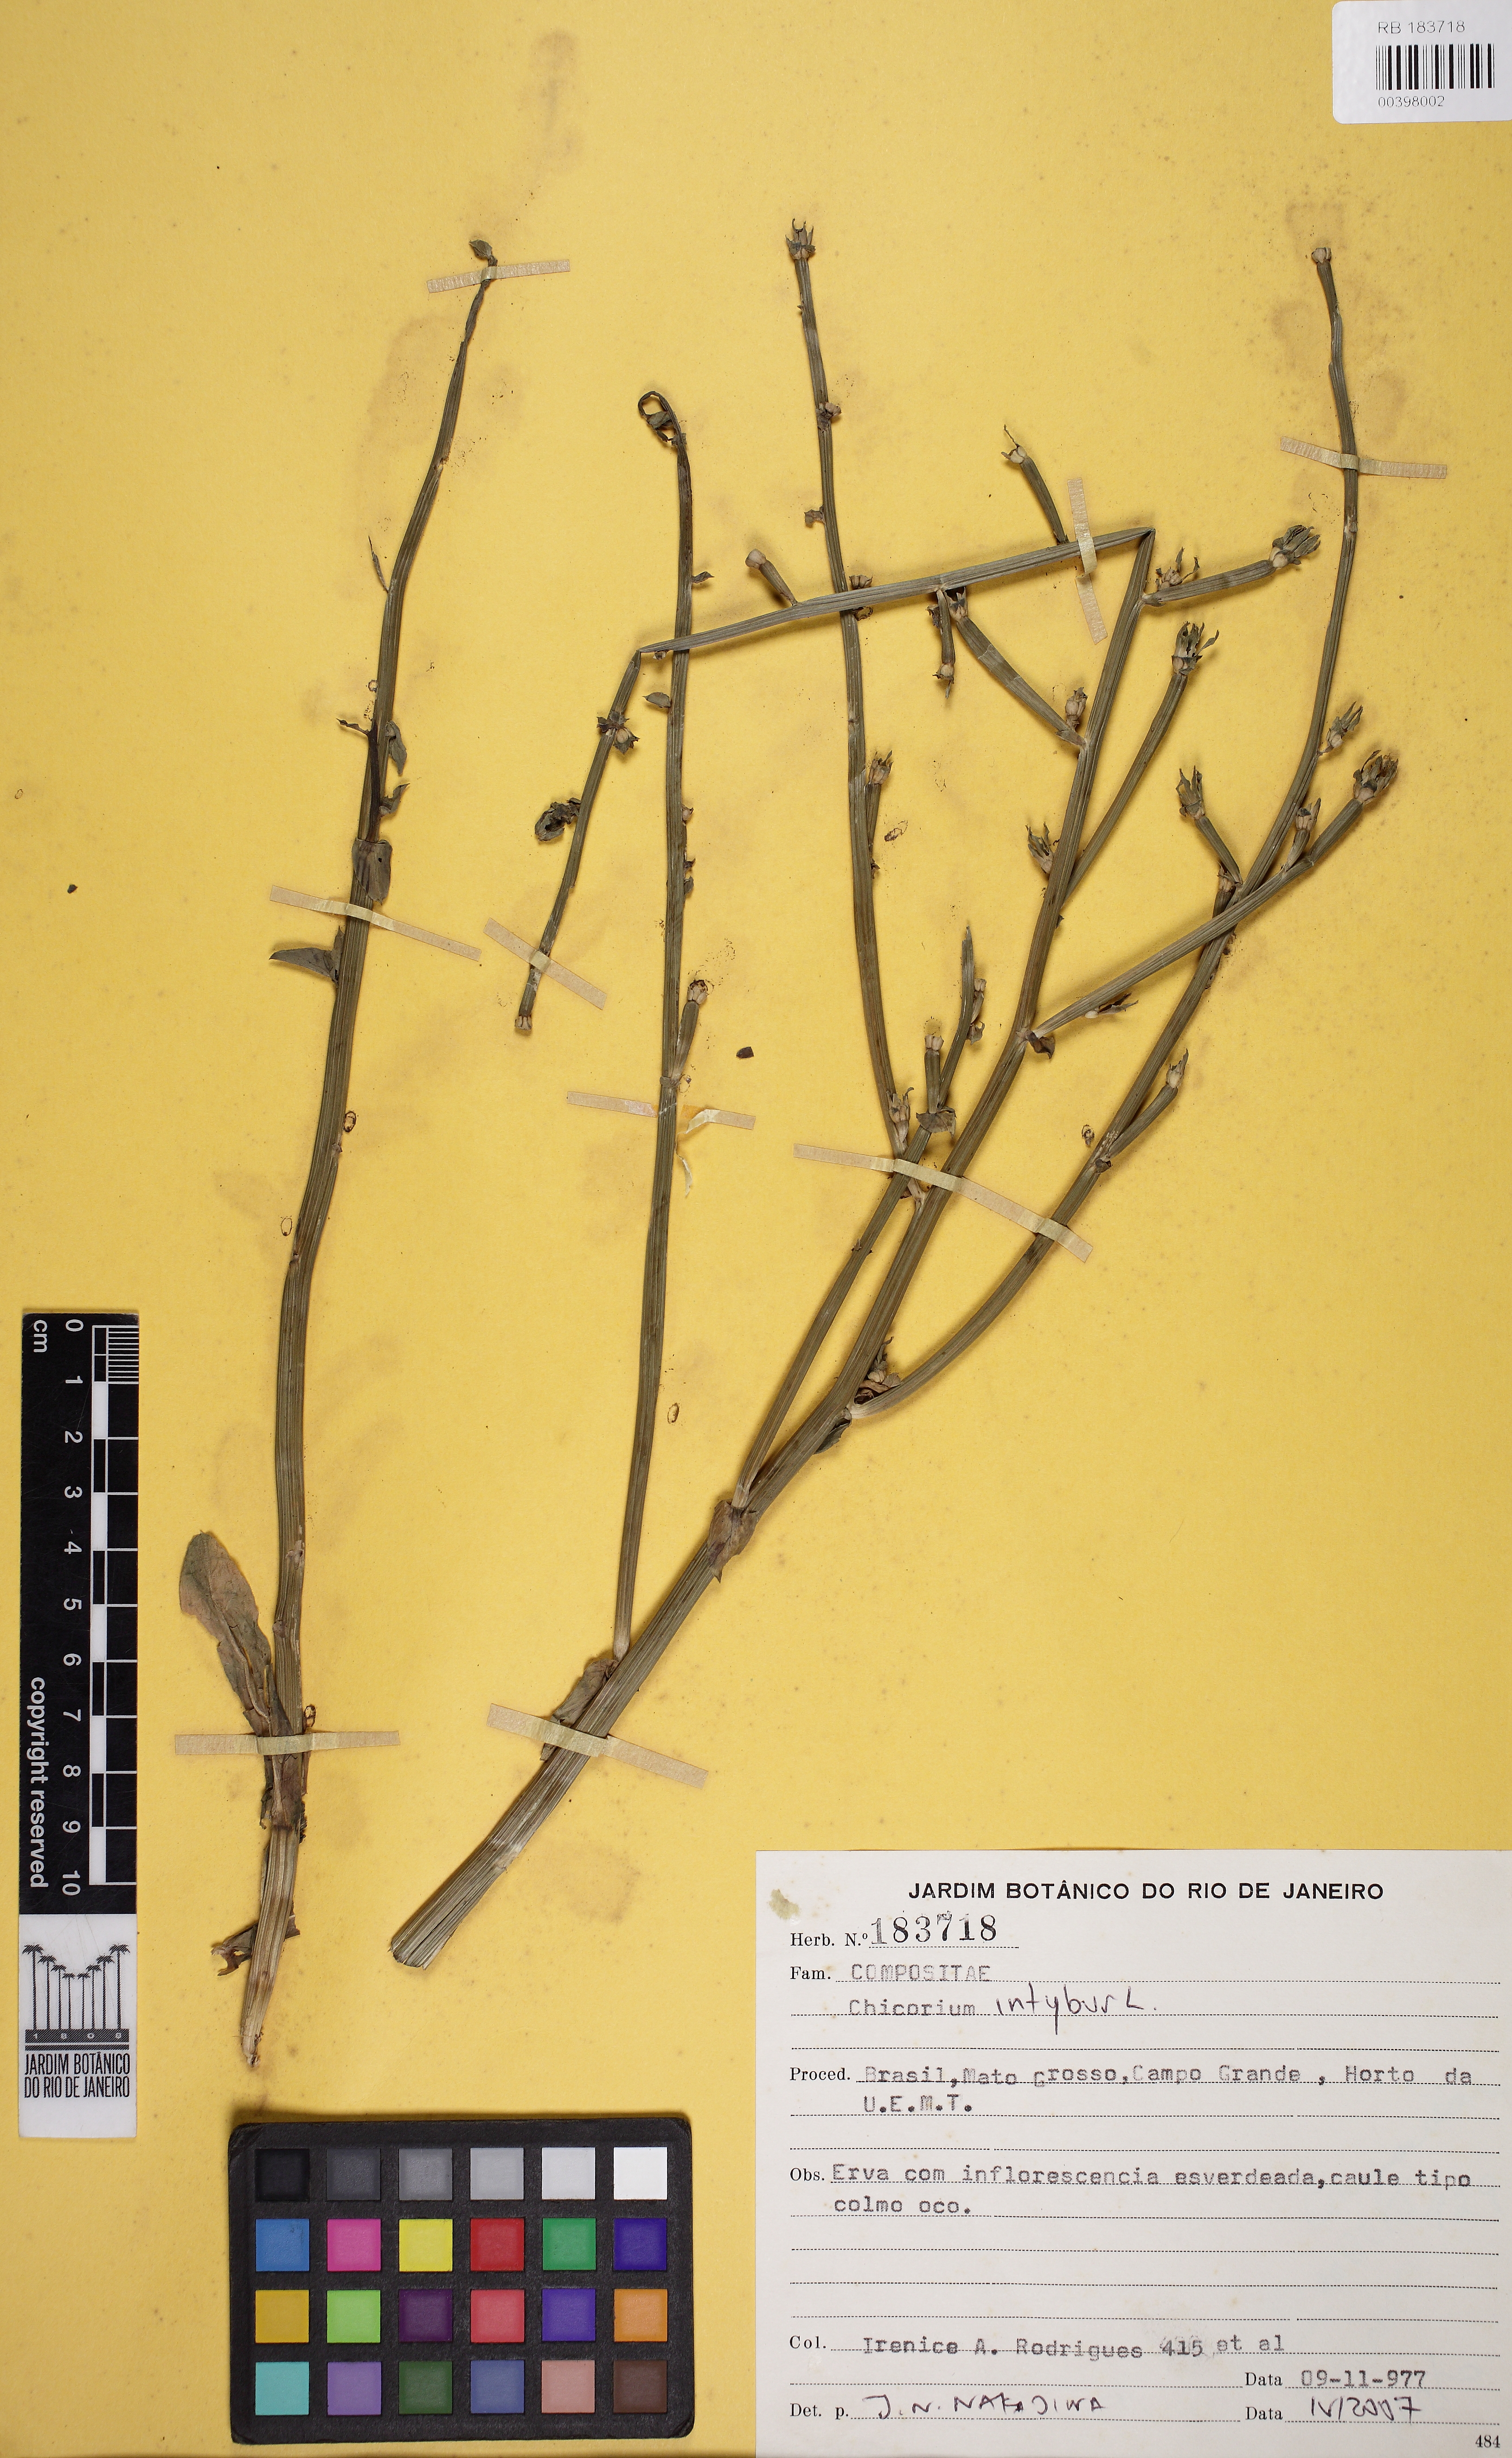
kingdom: Plantae
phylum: Tracheophyta
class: Magnoliopsida
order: Asterales
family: Asteraceae
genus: Cichorium
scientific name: Cichorium intybus
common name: Chicory
